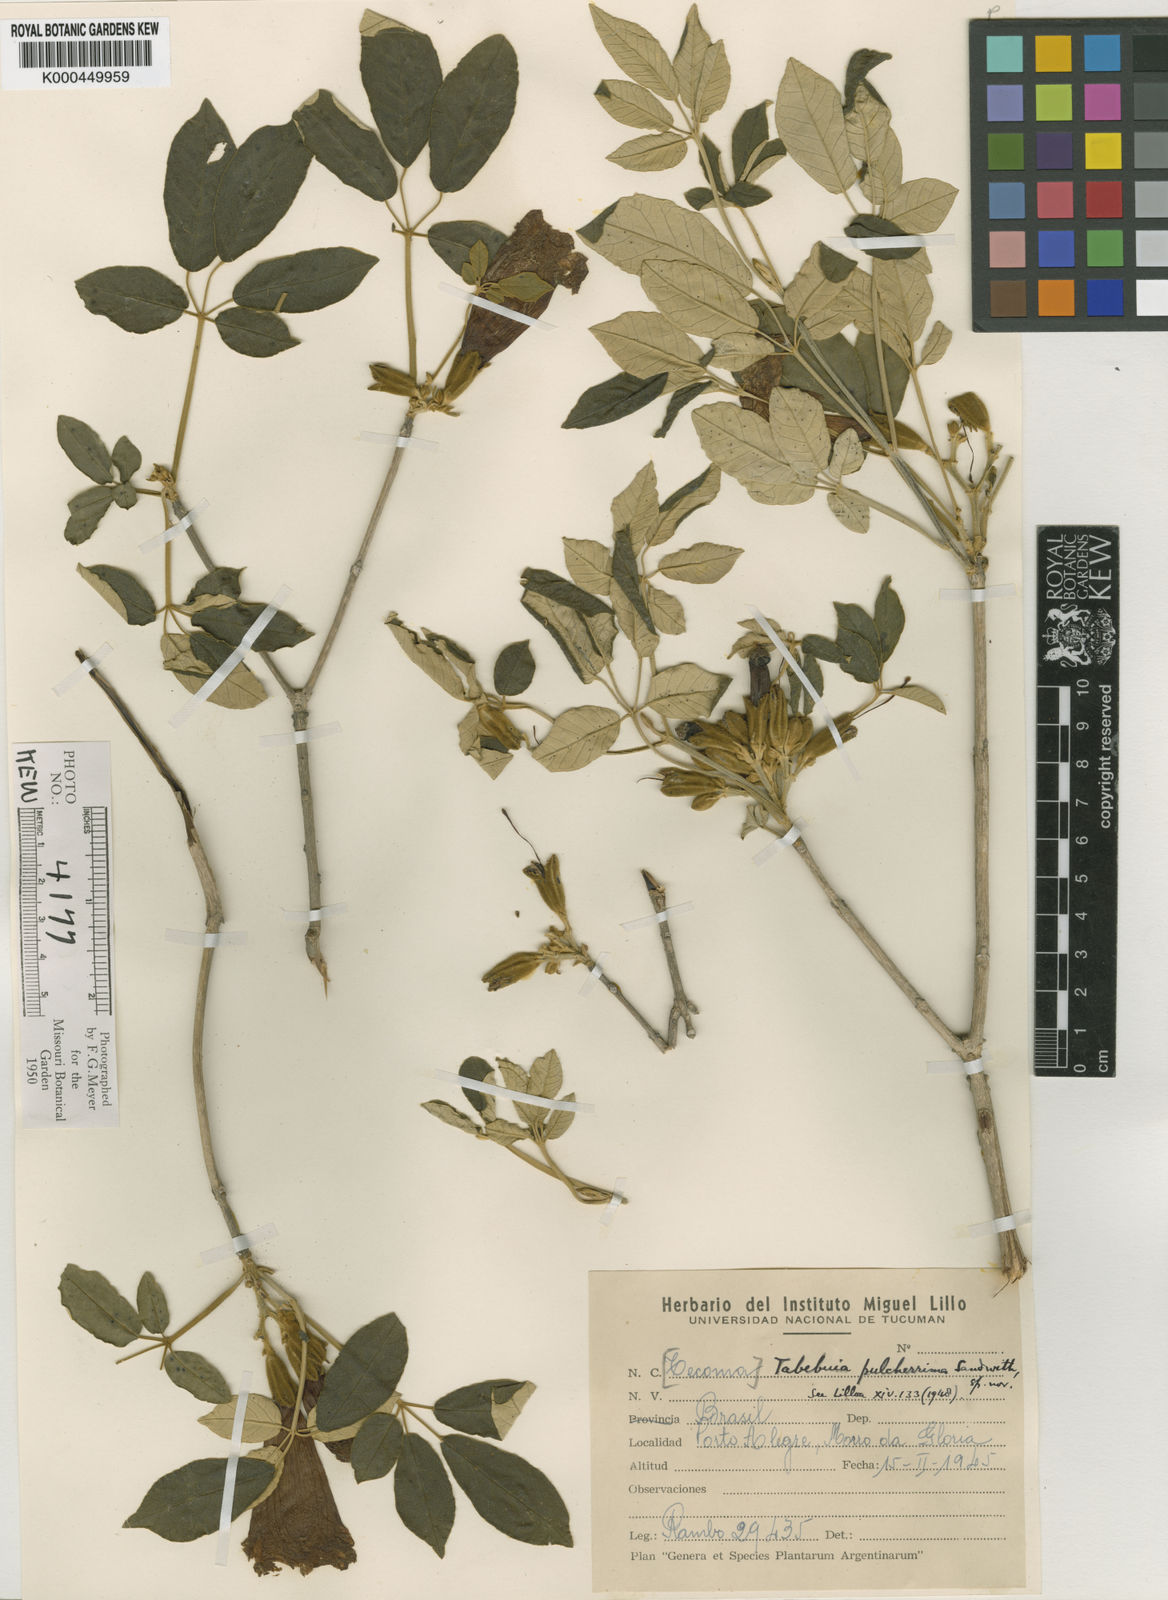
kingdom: Plantae
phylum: Tracheophyta
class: Magnoliopsida
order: Lamiales
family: Bignoniaceae
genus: Handroanthus
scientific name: Handroanthus pulcherrimus
